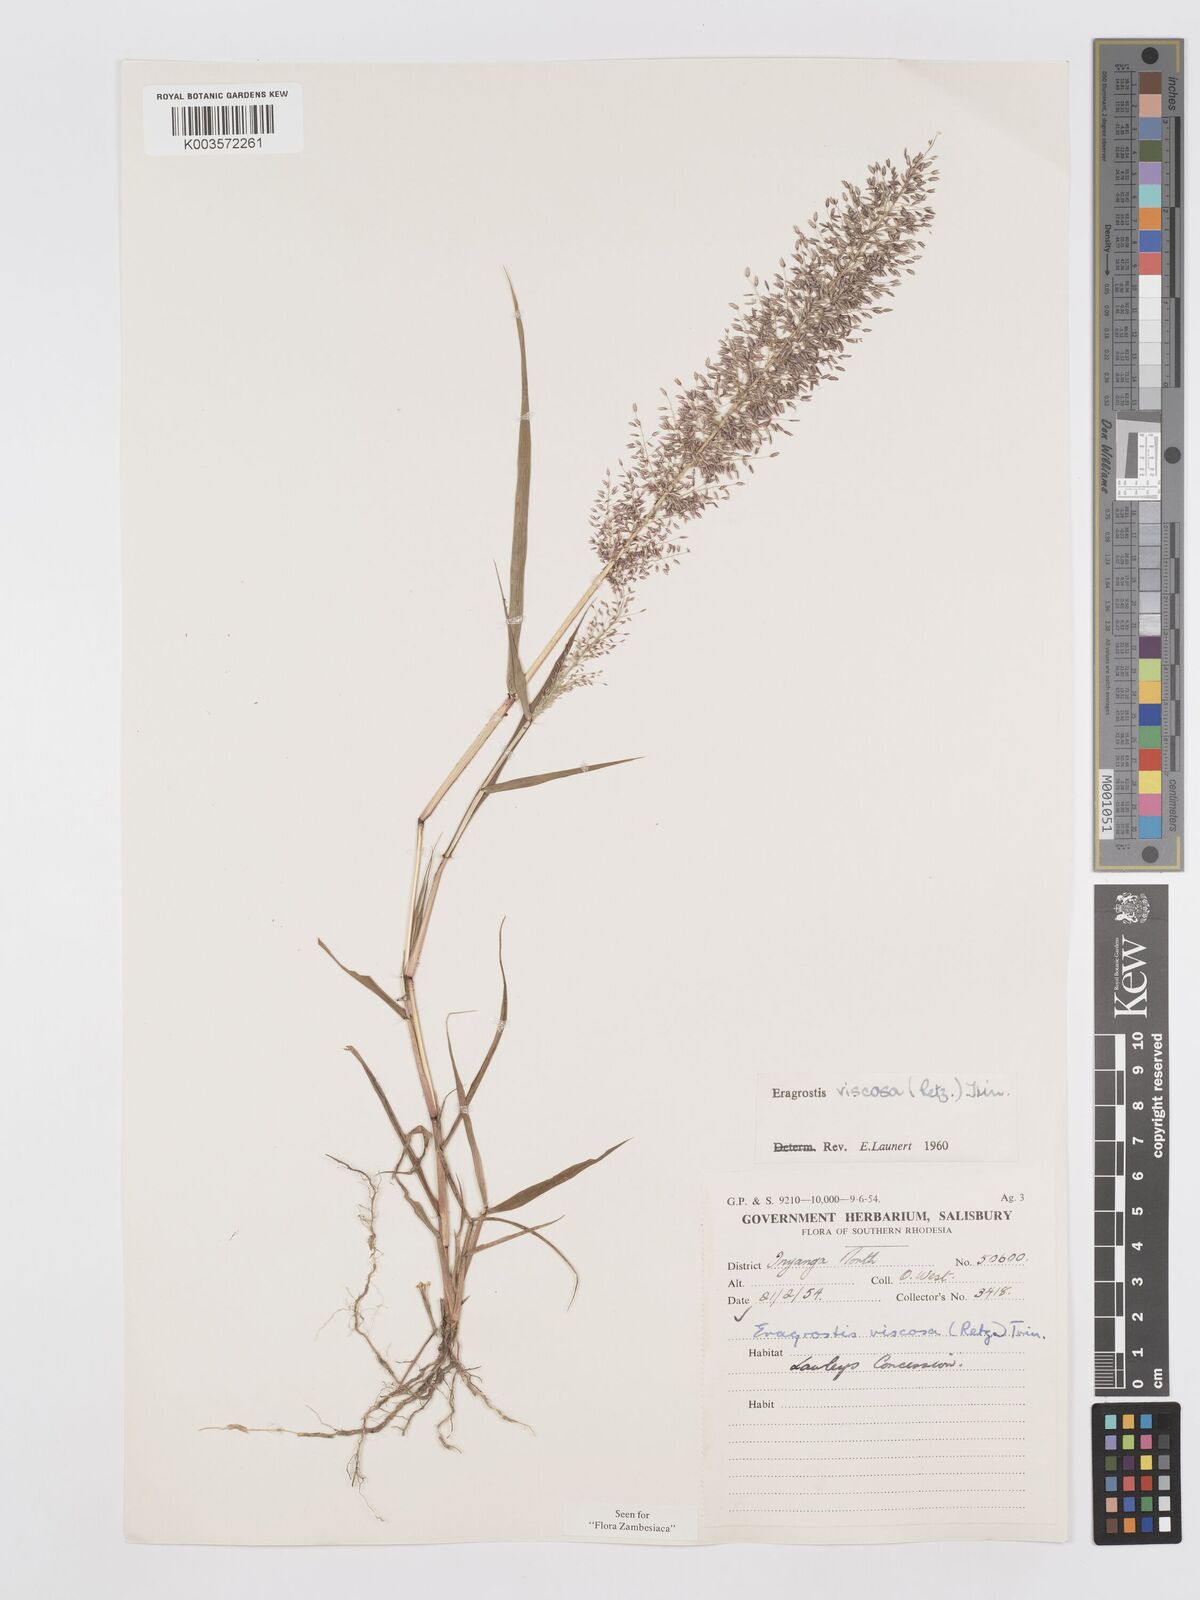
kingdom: Plantae
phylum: Tracheophyta
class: Liliopsida
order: Poales
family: Poaceae
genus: Eragrostis
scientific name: Eragrostis
